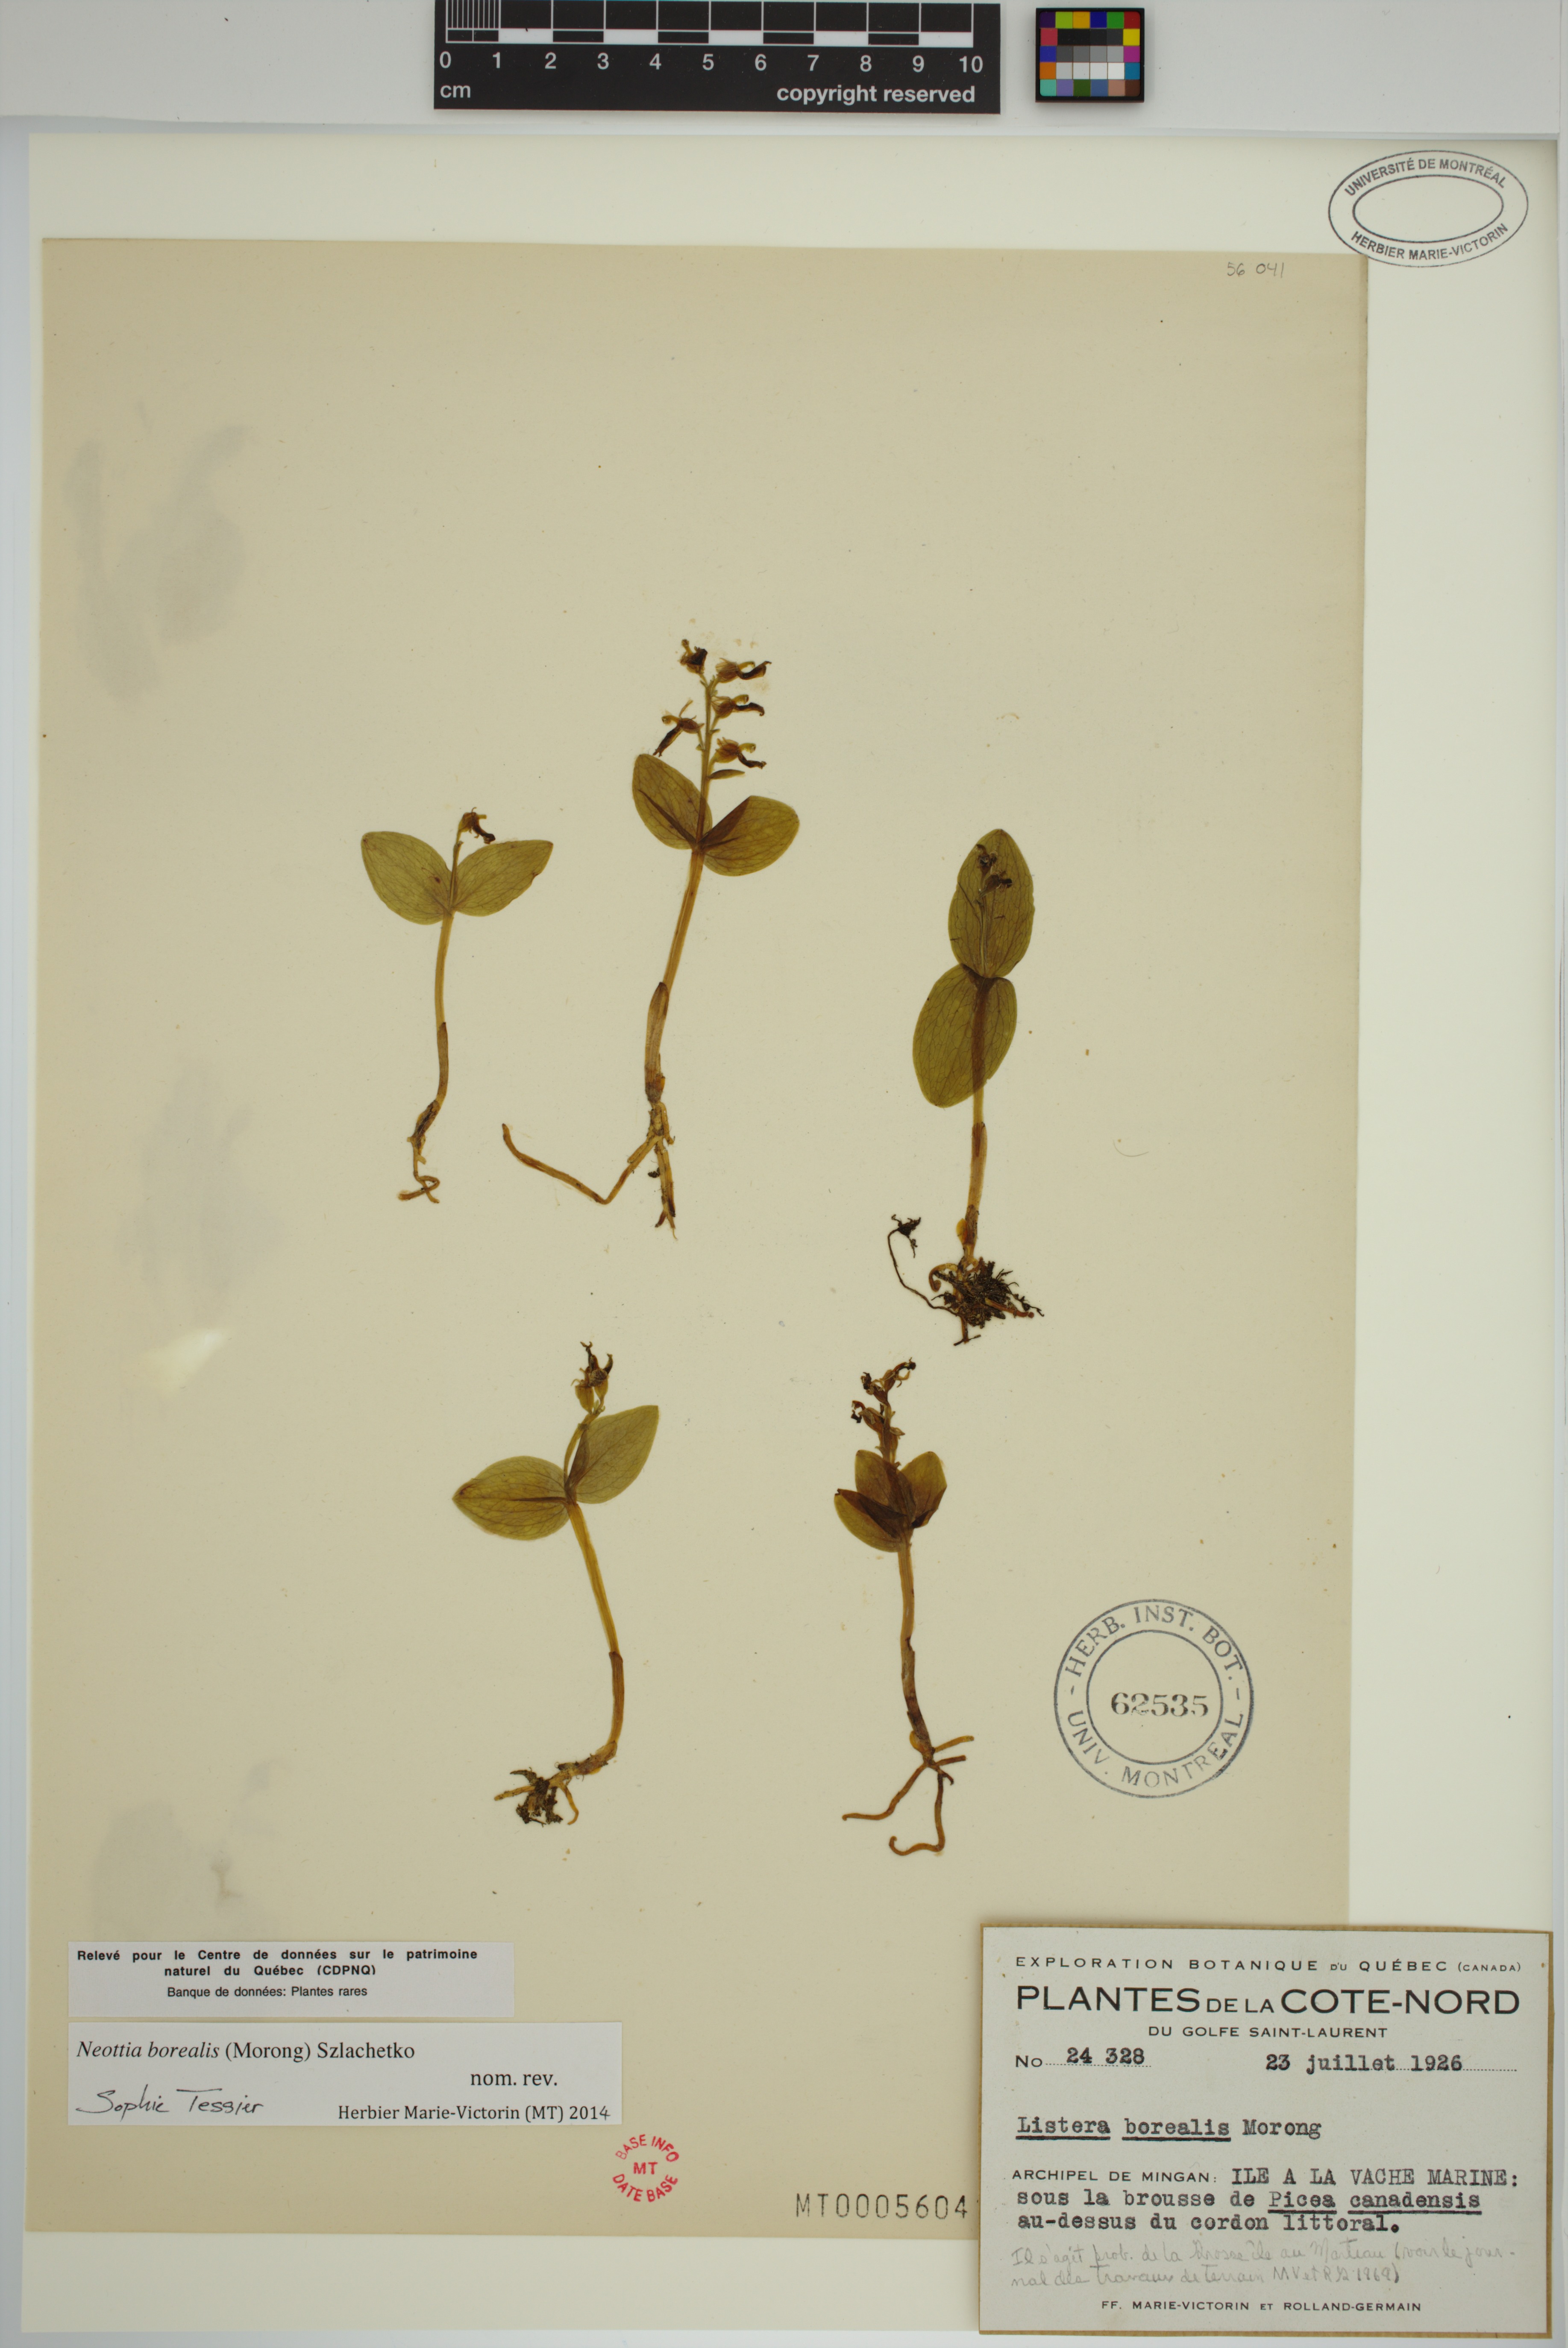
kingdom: Plantae
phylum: Tracheophyta
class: Liliopsida
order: Asparagales
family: Orchidaceae
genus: Neottia
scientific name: Neottia borealis
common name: Northern twayblade
